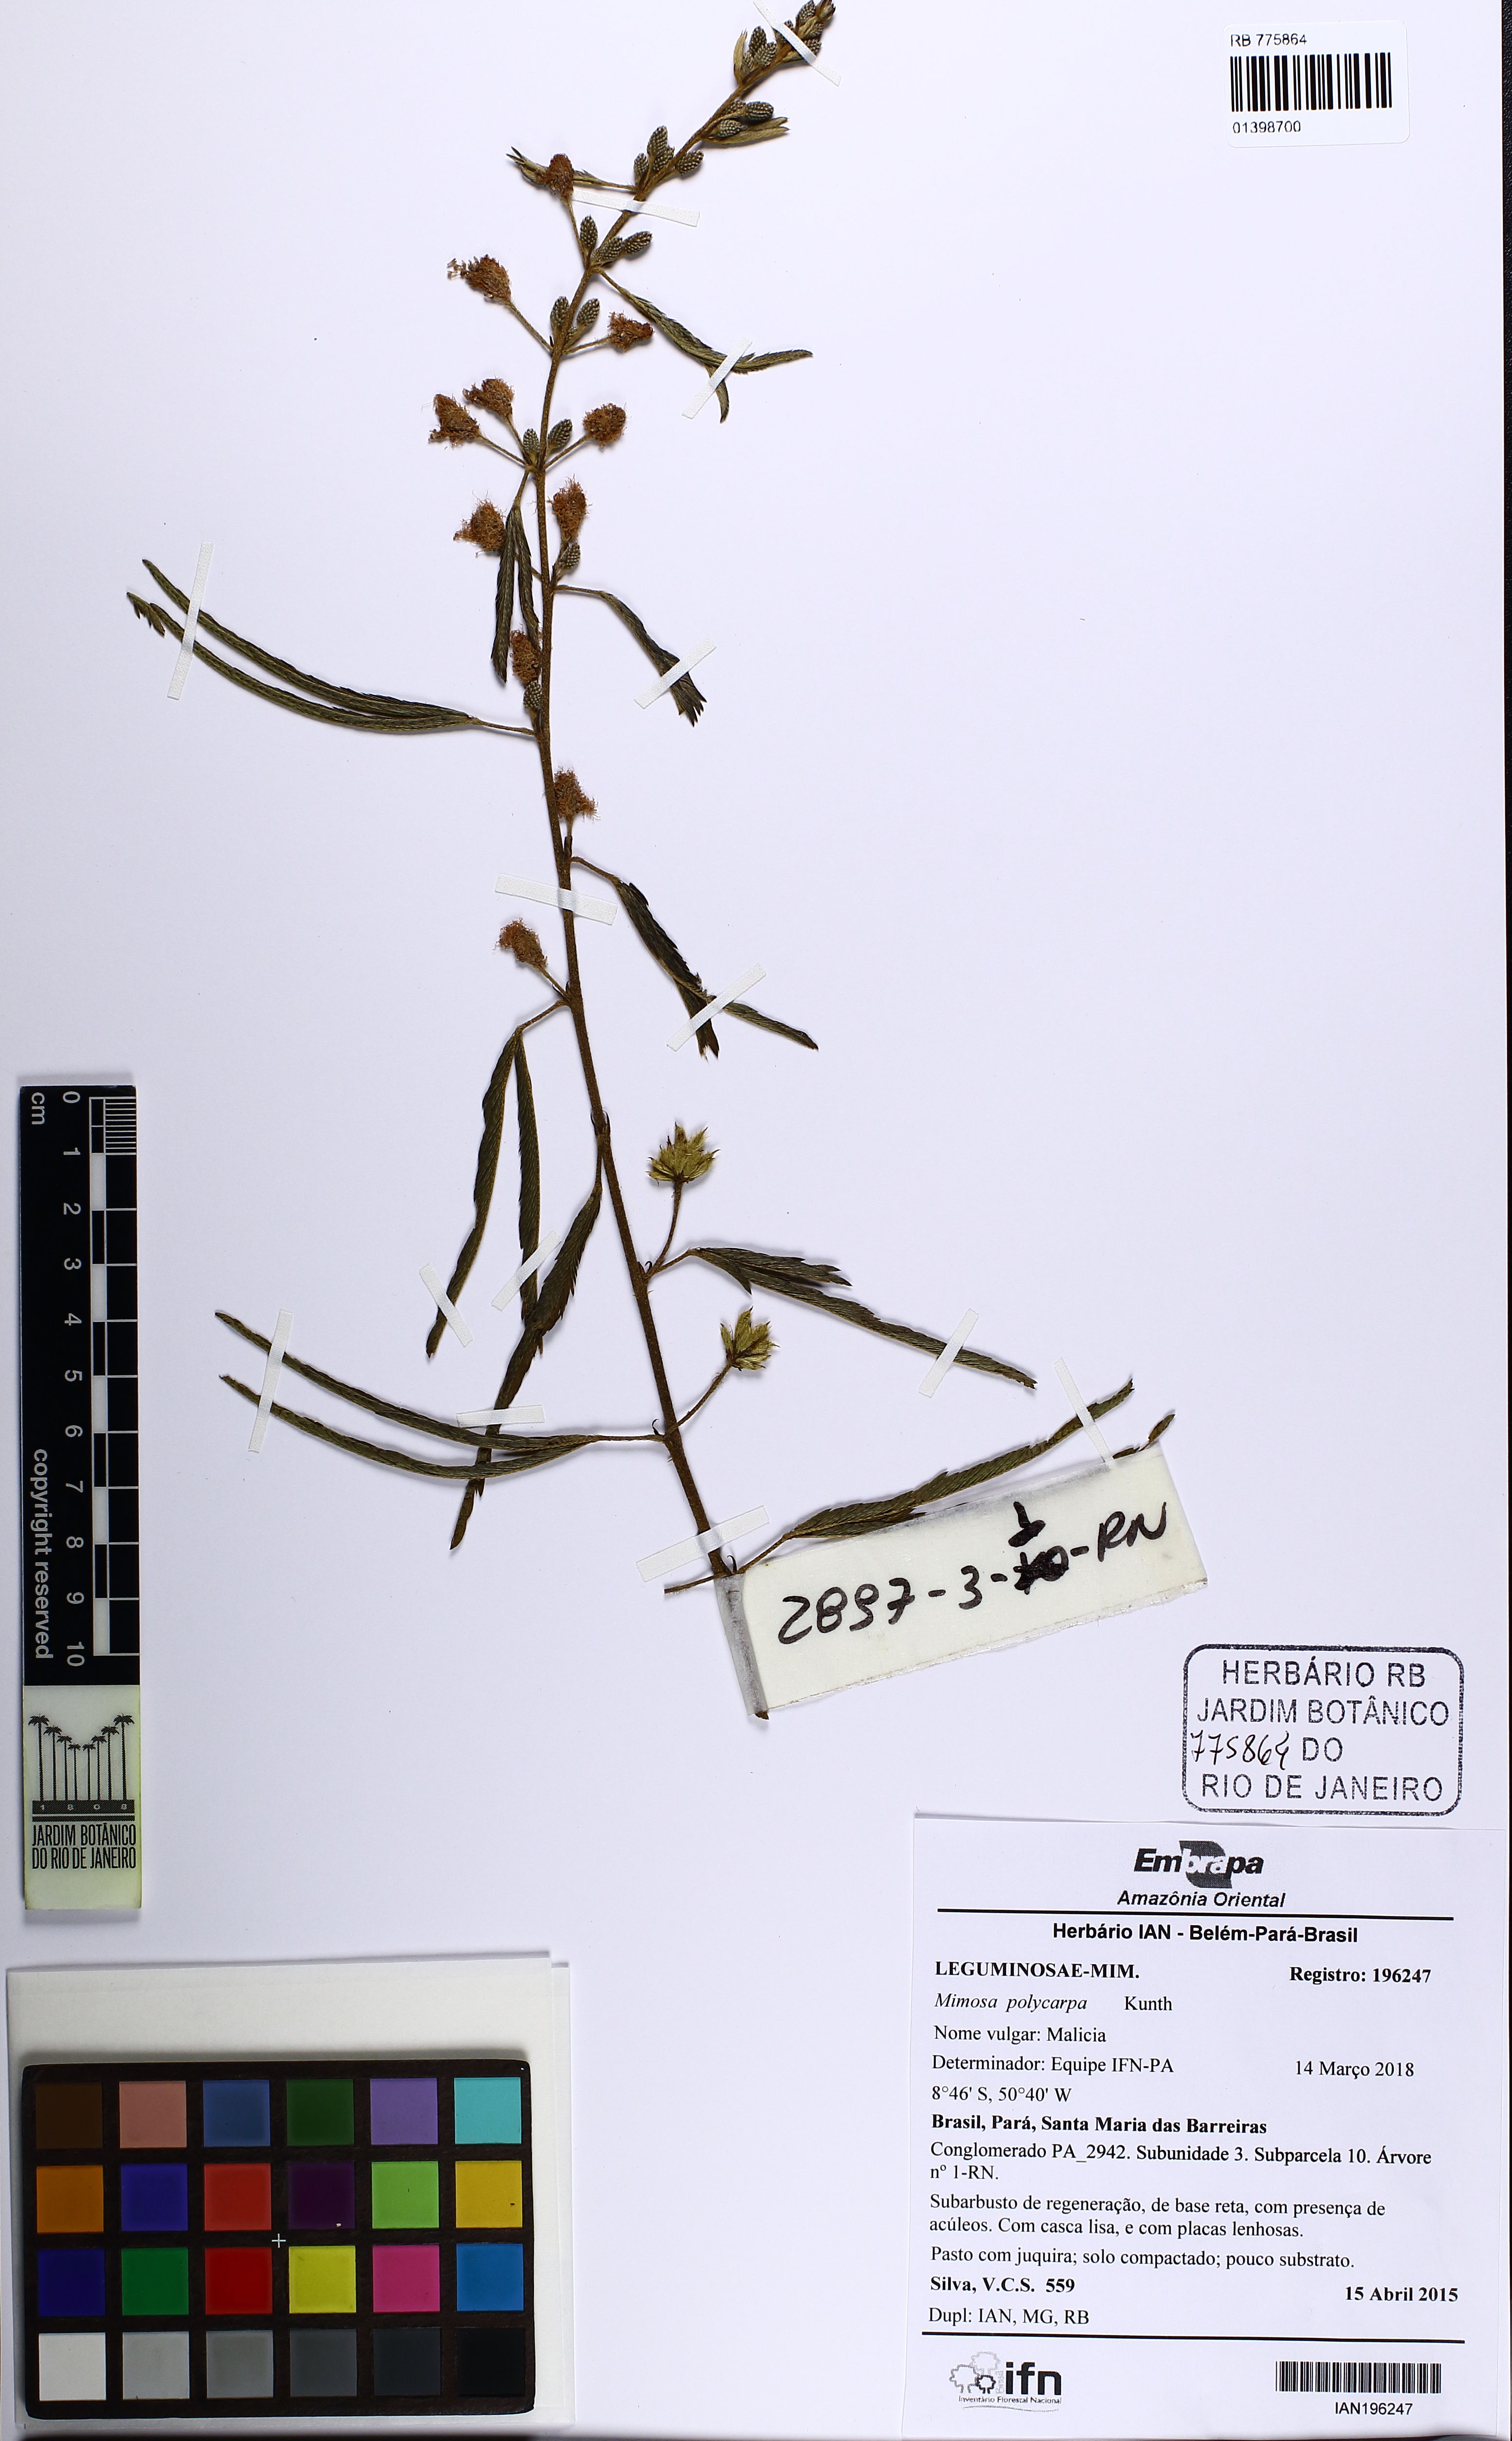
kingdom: Plantae
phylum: Tracheophyta
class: Magnoliopsida
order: Fabales
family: Fabaceae
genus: Mimosa
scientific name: Mimosa polycarpa
